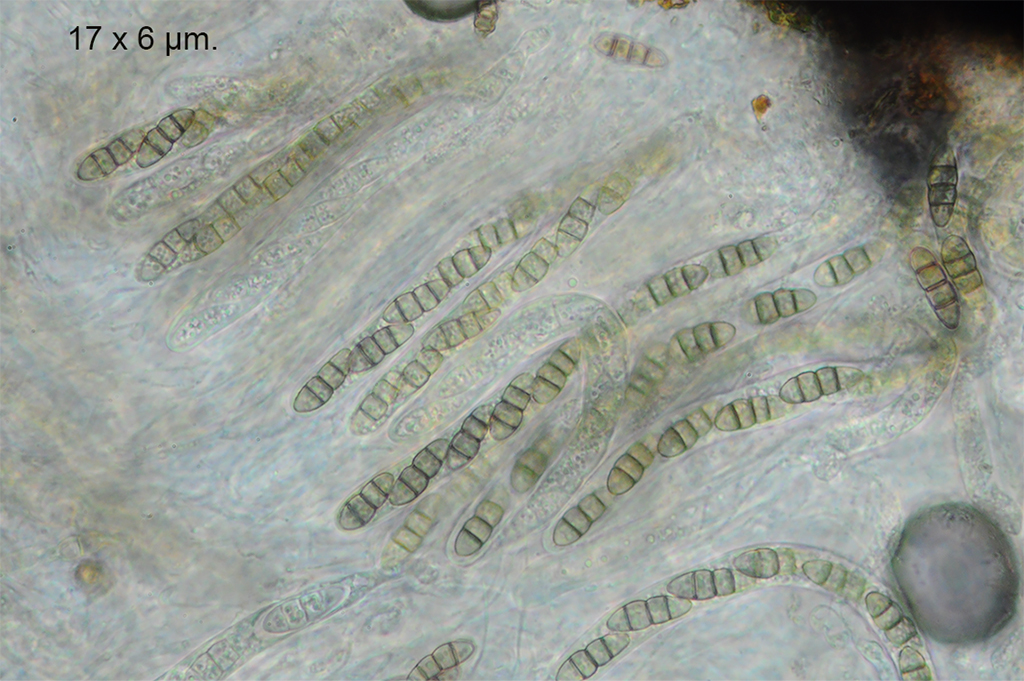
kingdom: Fungi
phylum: Ascomycota
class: Dothideomycetes
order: Pleosporales
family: Melanommataceae
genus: Melanomma
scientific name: Melanomma pulvis-pyrius
